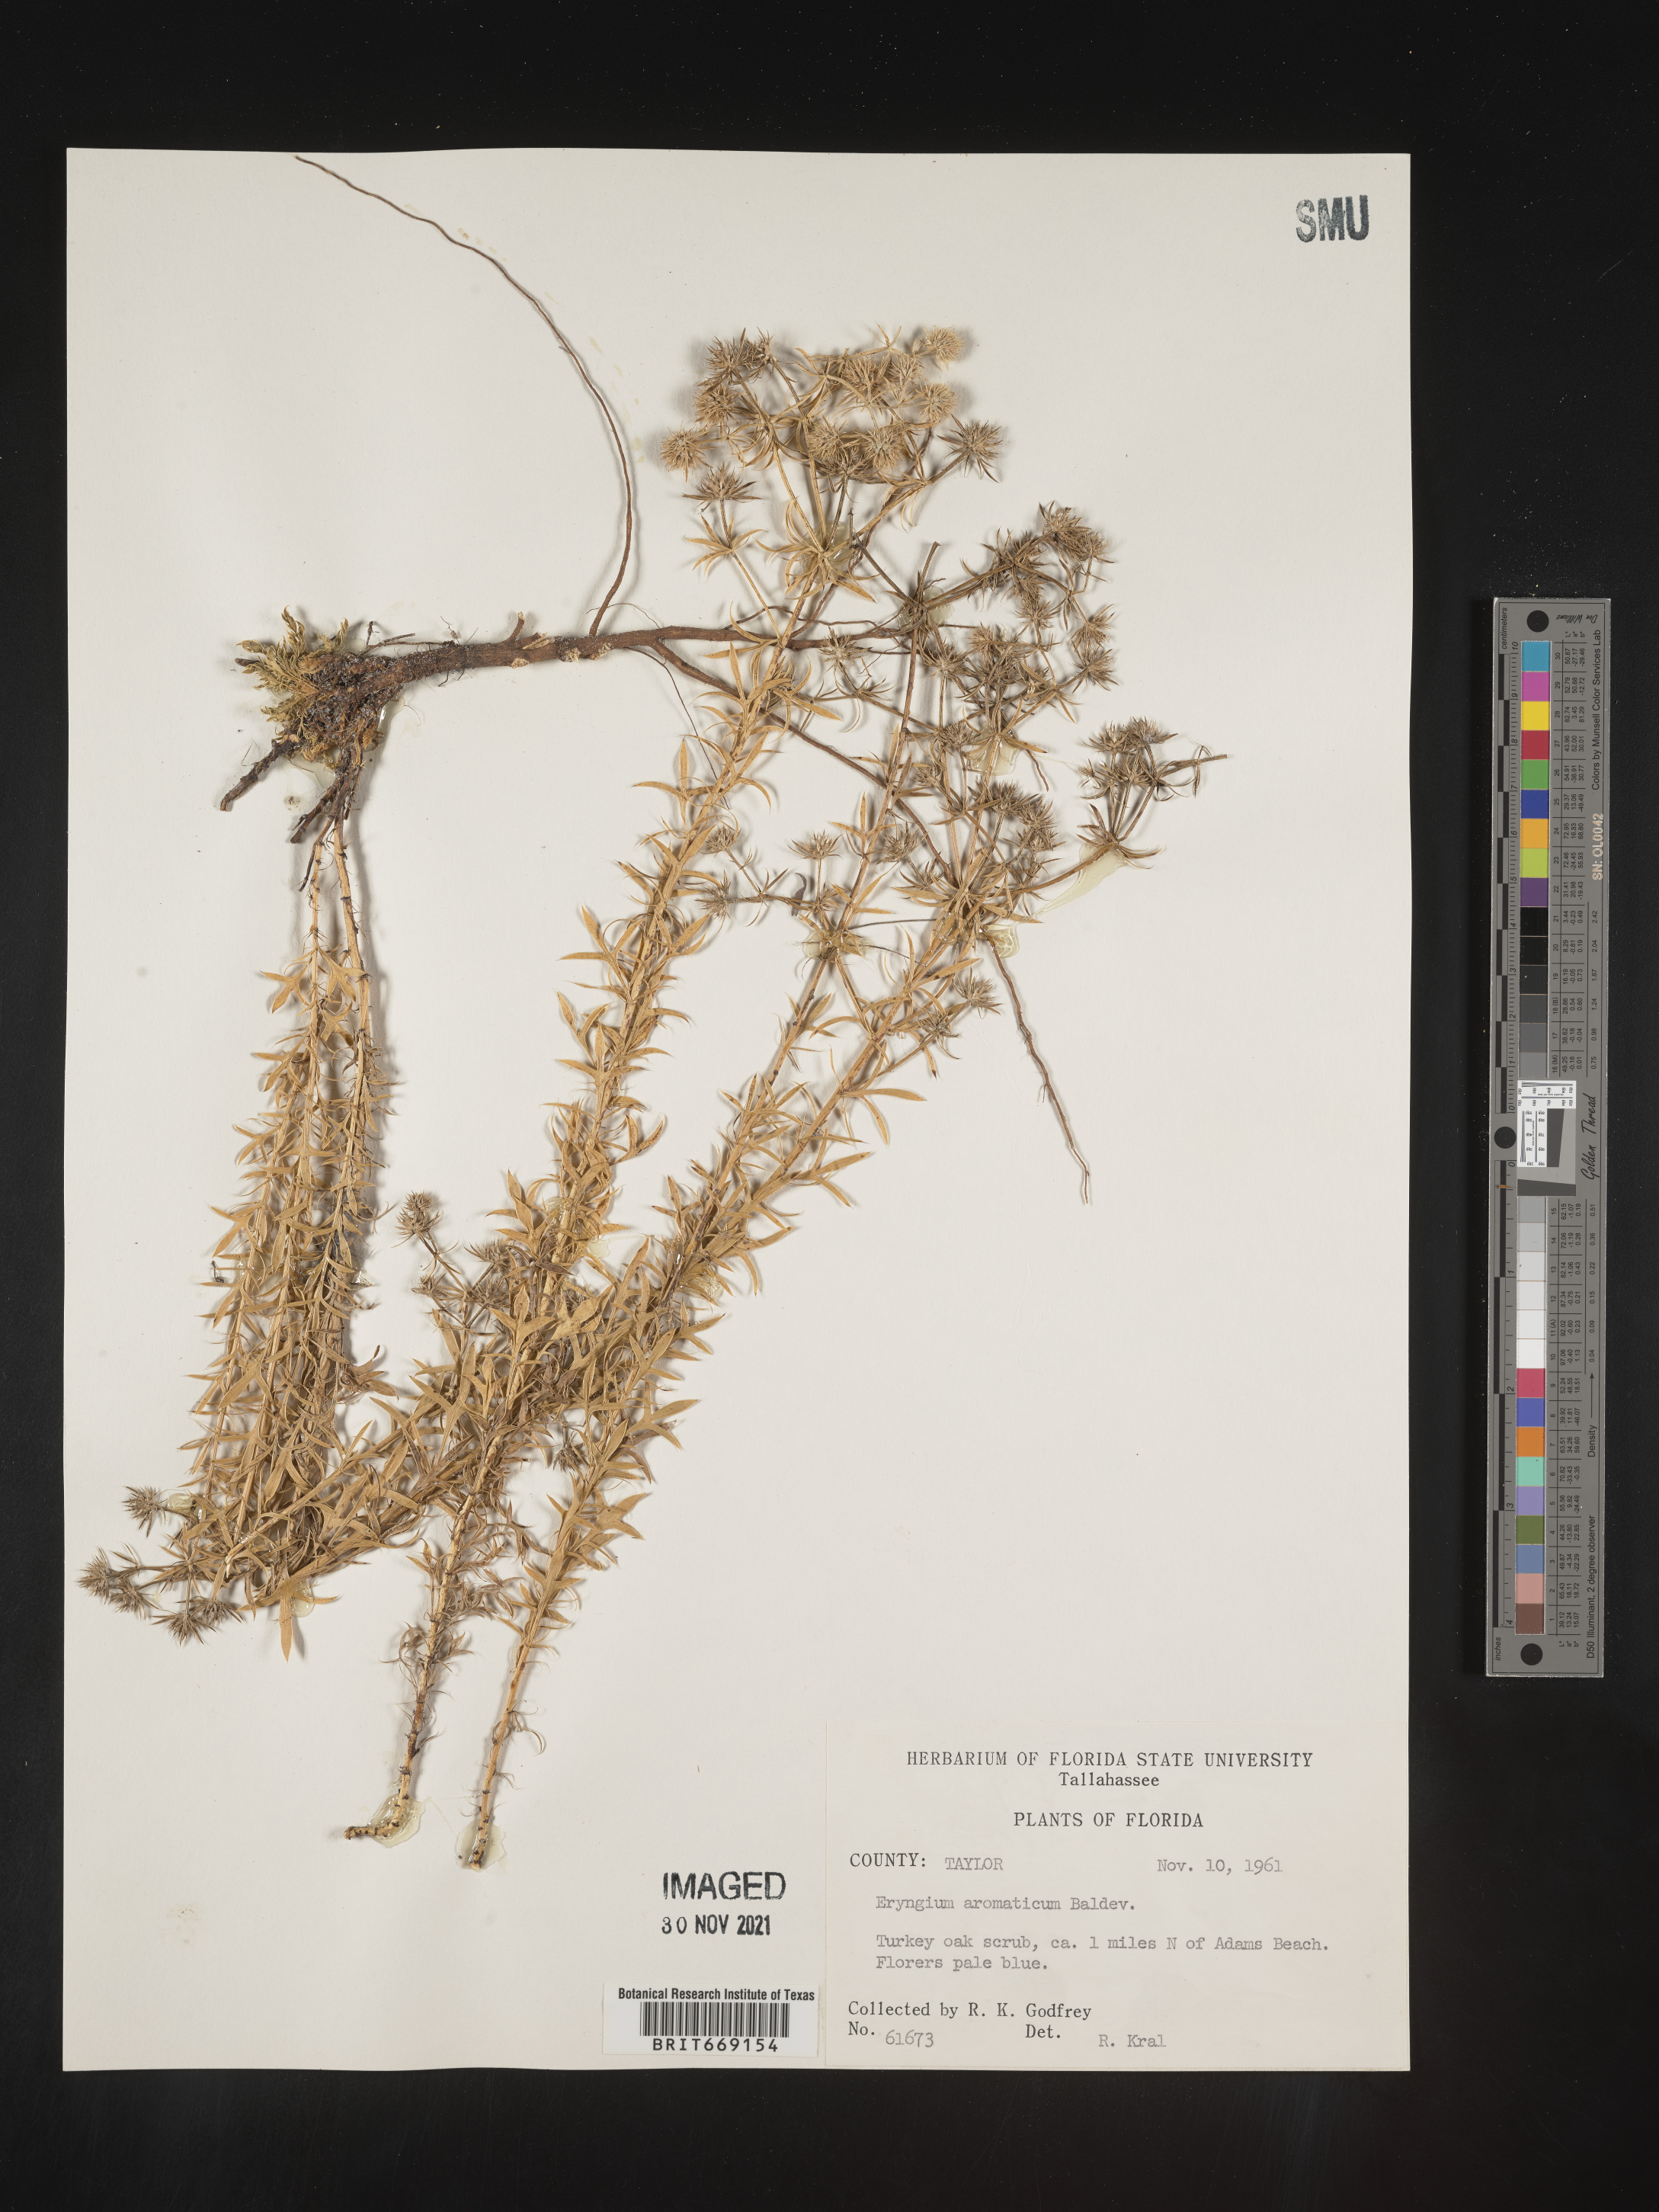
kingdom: Plantae
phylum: Tracheophyta
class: Magnoliopsida
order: Apiales
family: Apiaceae
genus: Eryngium
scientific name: Eryngium aromaticum
